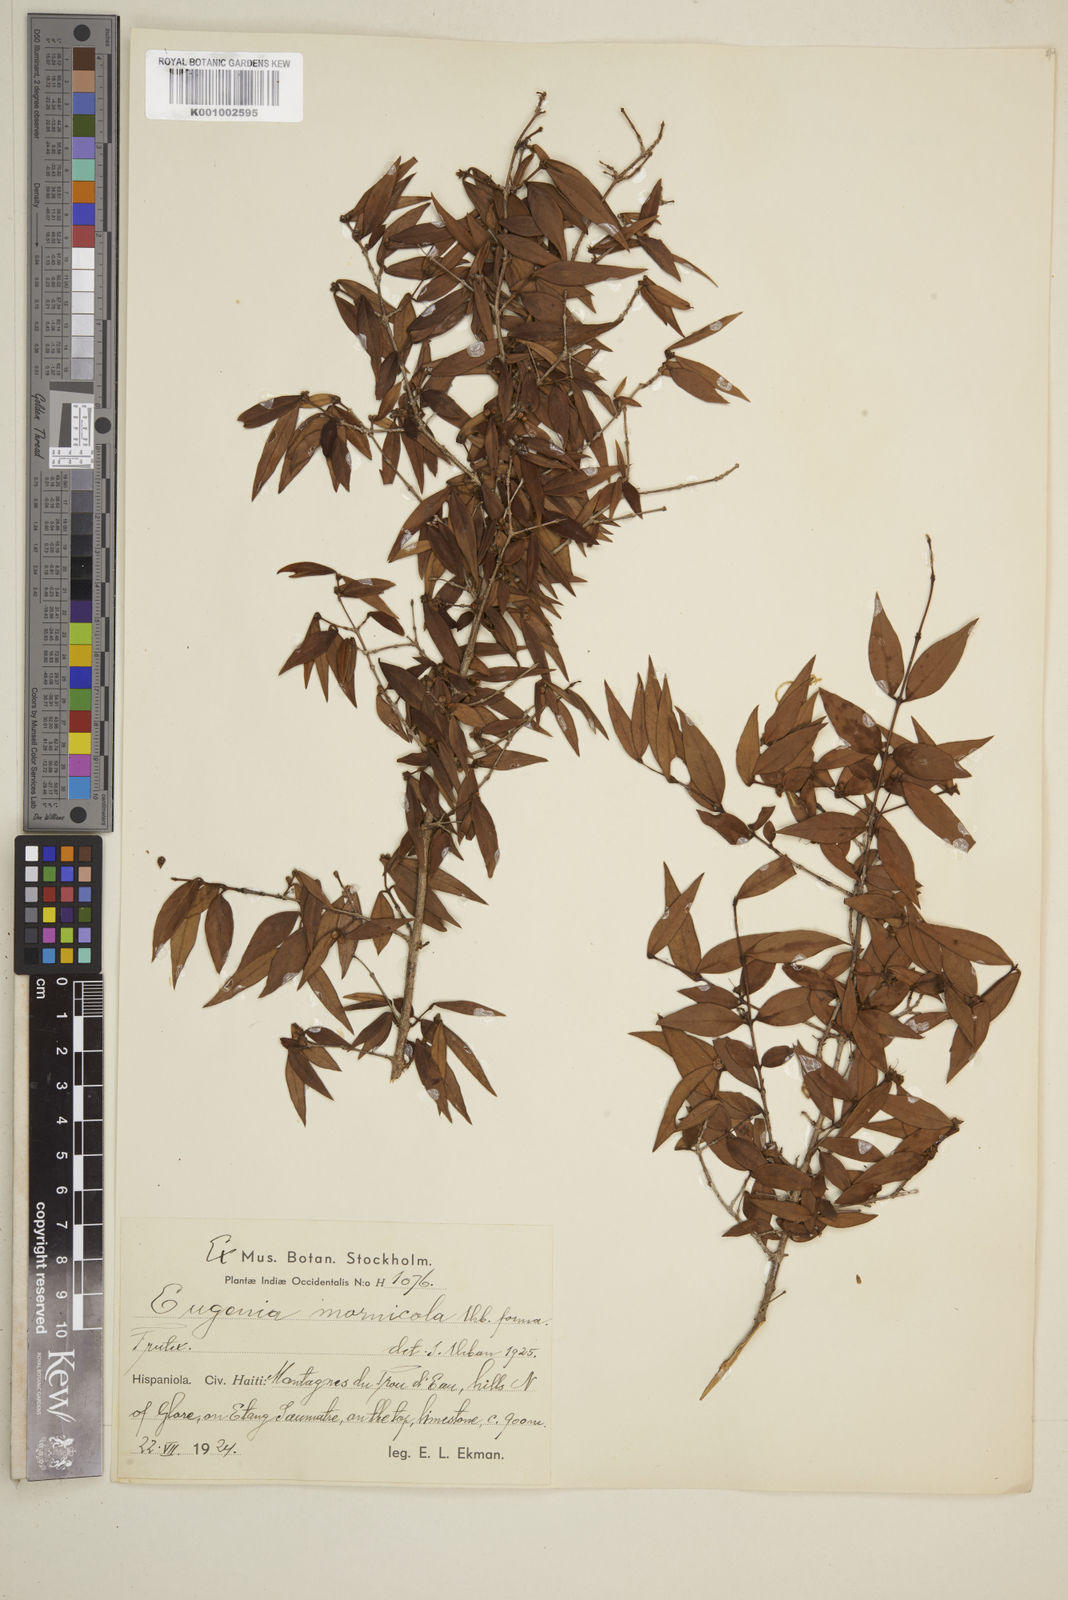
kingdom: Plantae
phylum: Tracheophyta
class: Magnoliopsida
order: Myrtales
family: Myrtaceae
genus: Eugenia
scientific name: Eugenia isabeliana
